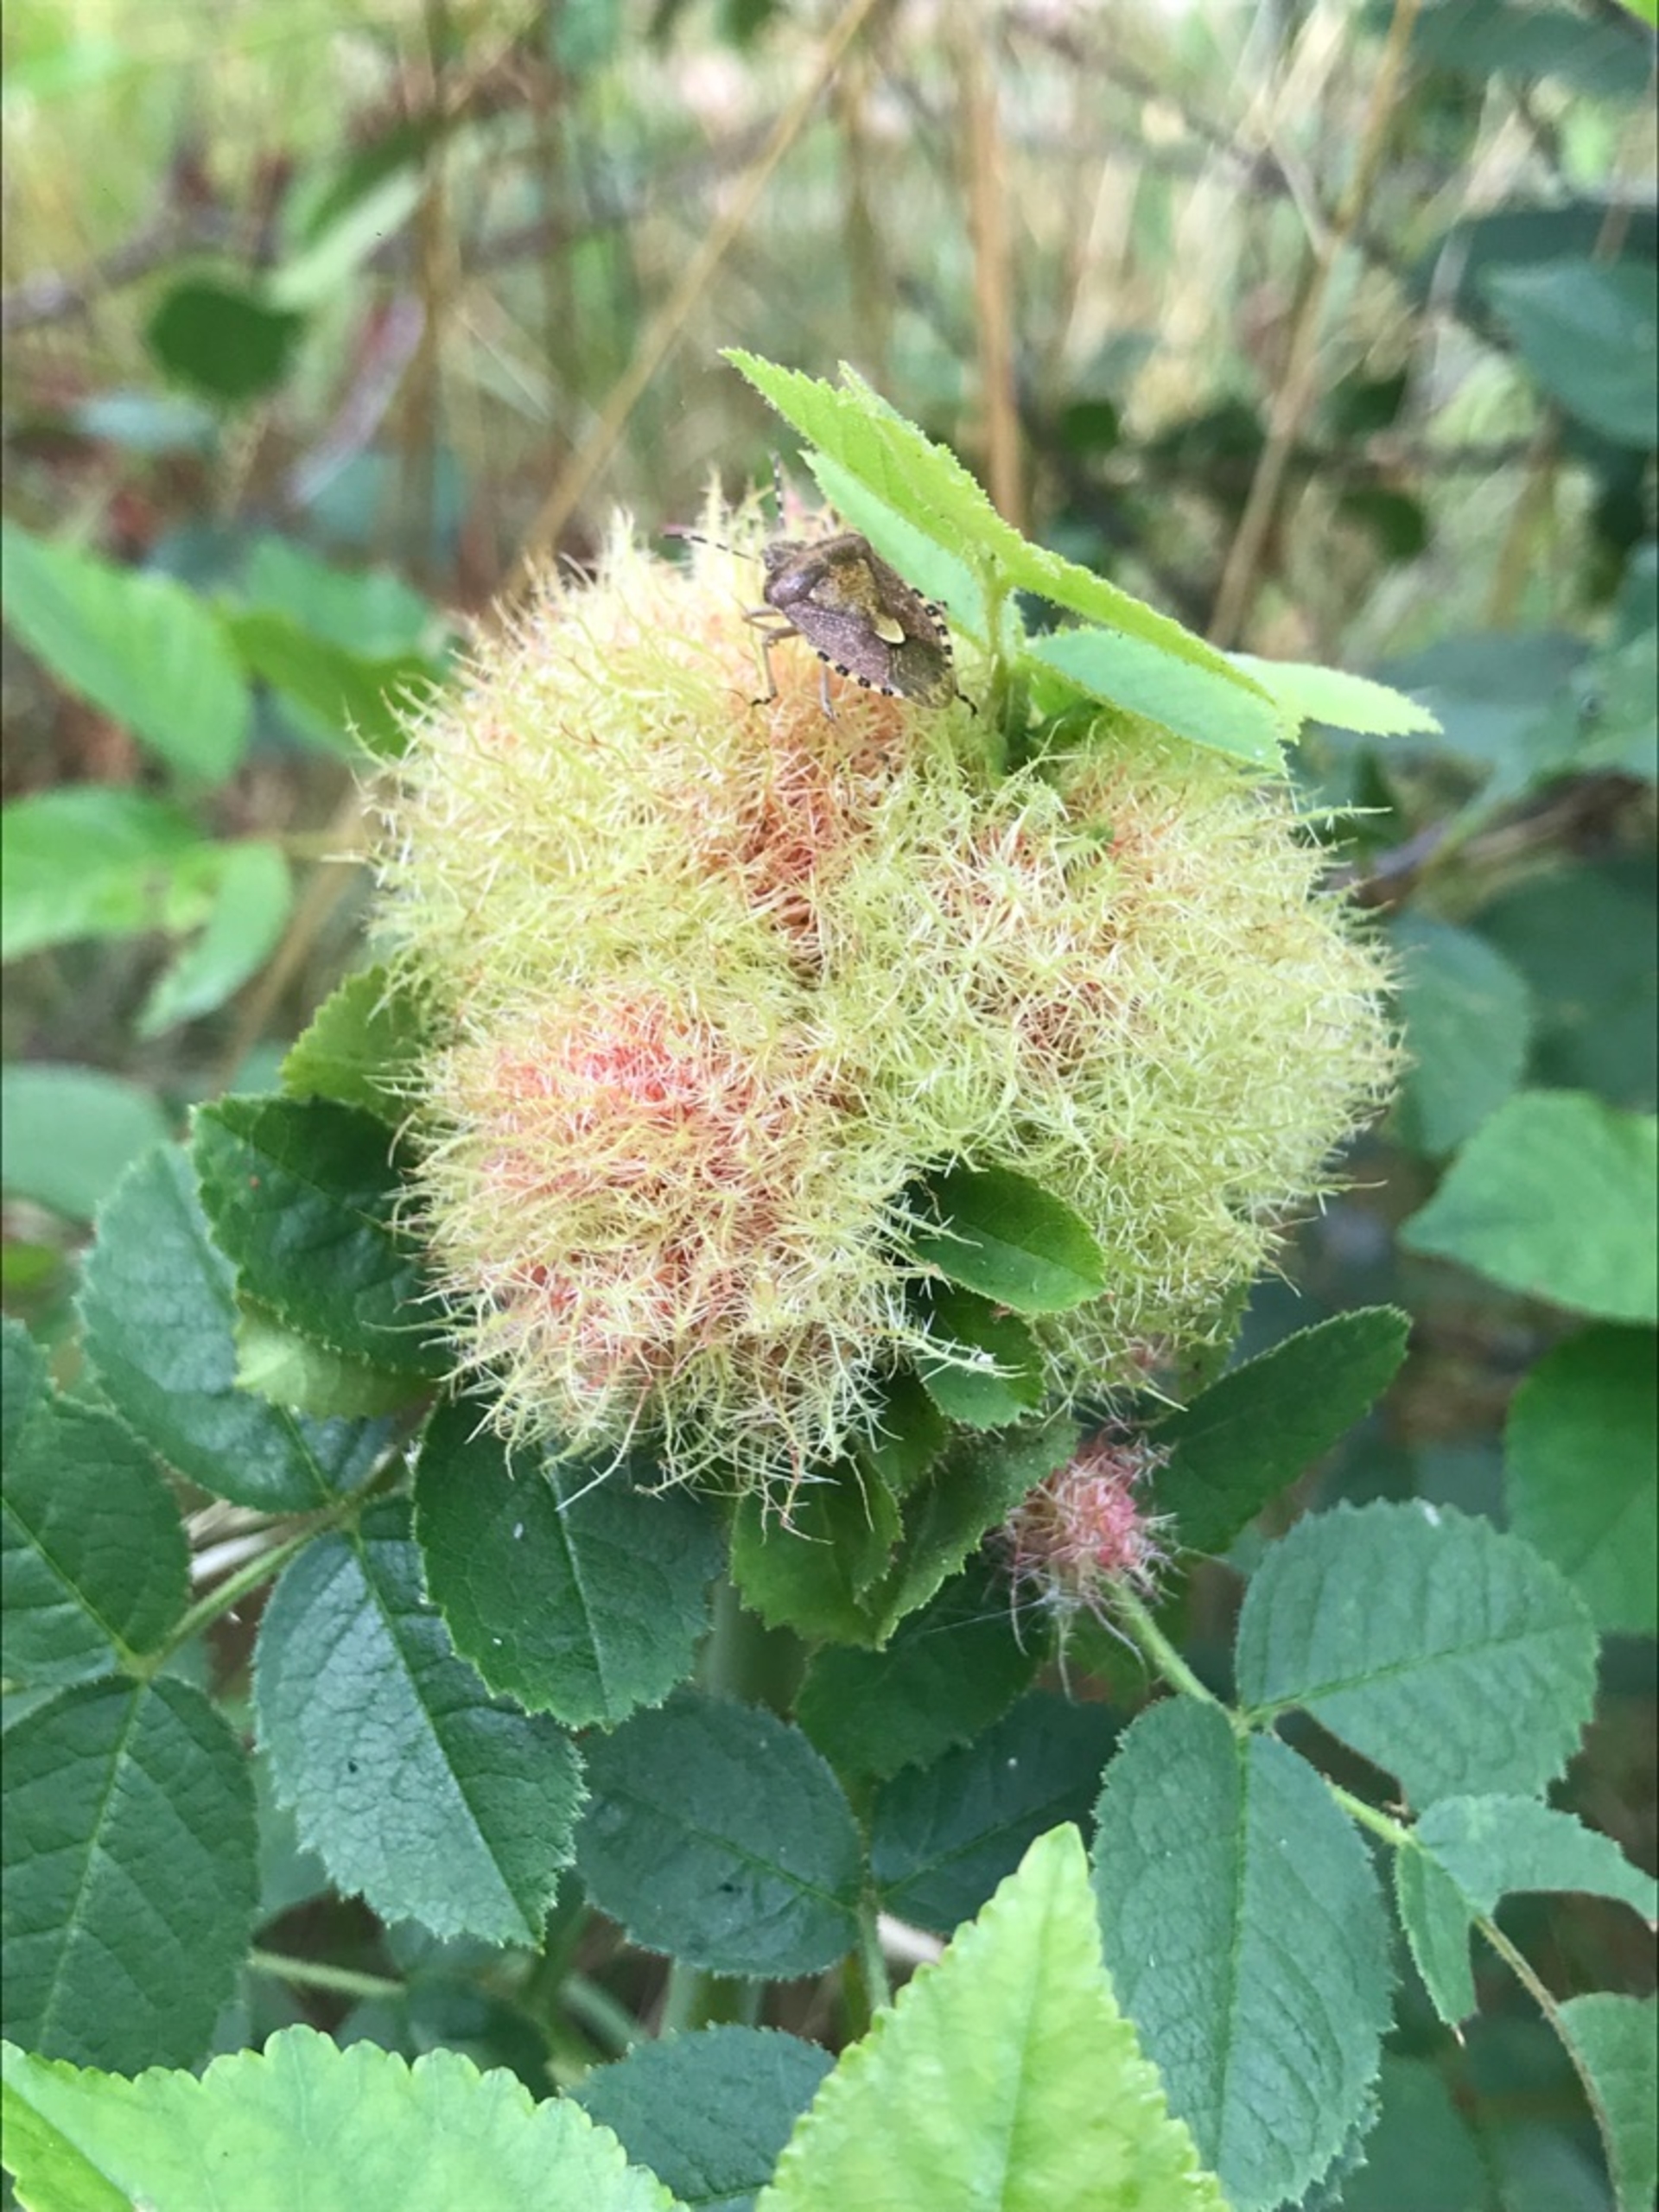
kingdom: Animalia
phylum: Arthropoda
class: Insecta
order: Hymenoptera
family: Cynipidae
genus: Diplolepis
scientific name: Diplolepis rosae
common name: Bedeguargalhveps
